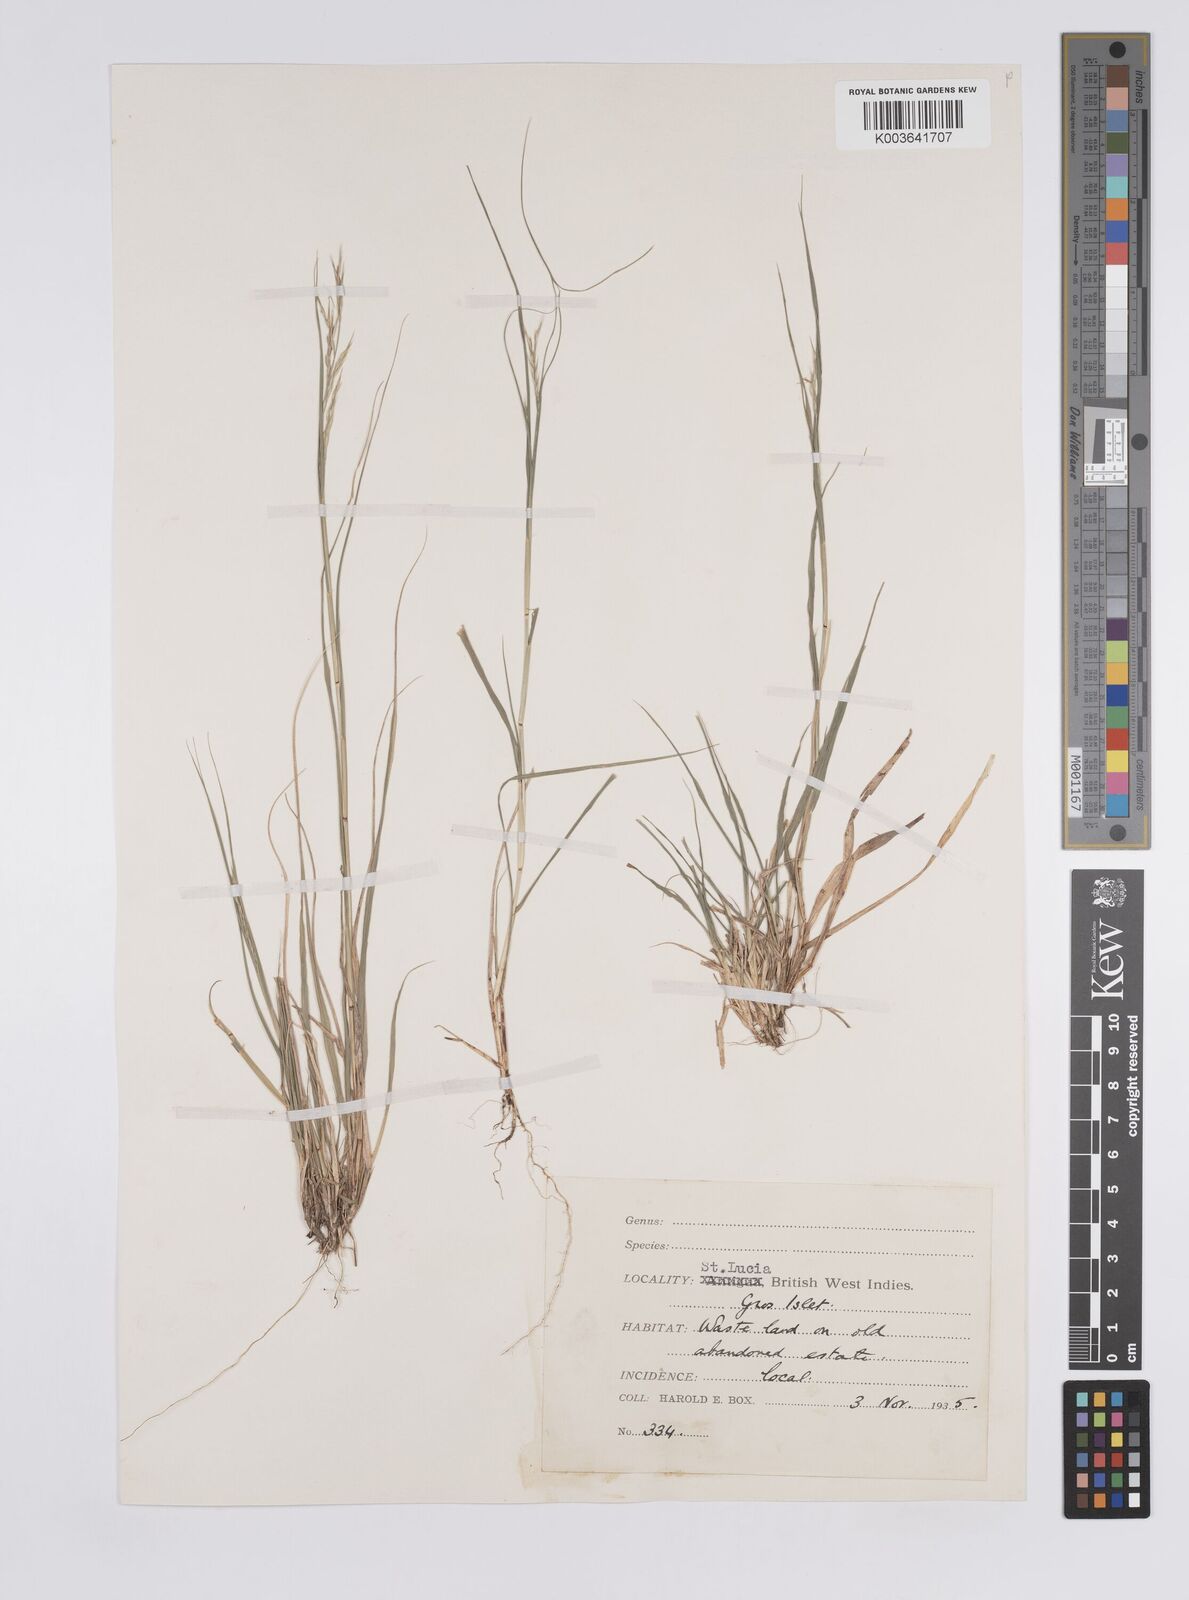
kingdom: Plantae
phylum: Tracheophyta
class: Liliopsida
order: Poales
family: Poaceae
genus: Aristida
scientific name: Aristida
